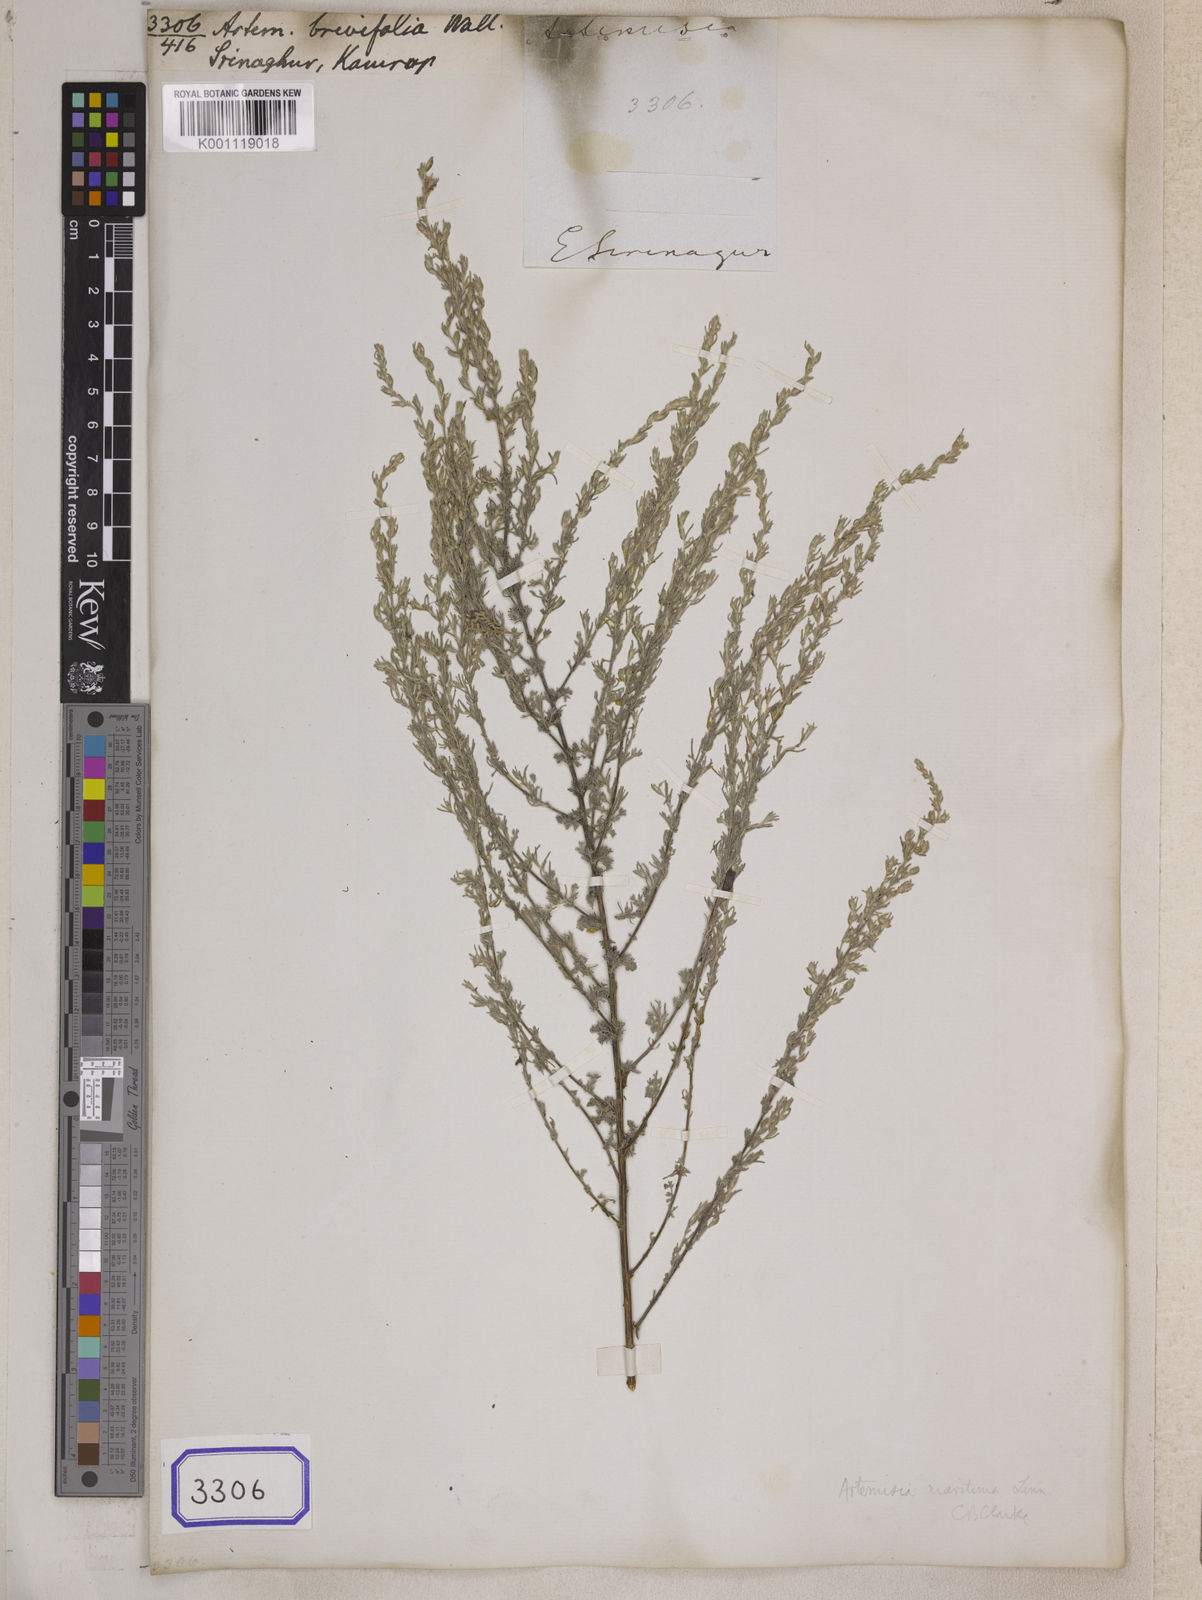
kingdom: Plantae
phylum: Tracheophyta
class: Magnoliopsida
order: Asterales
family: Asteraceae
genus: Artemisia
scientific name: Artemisia brevifolia
